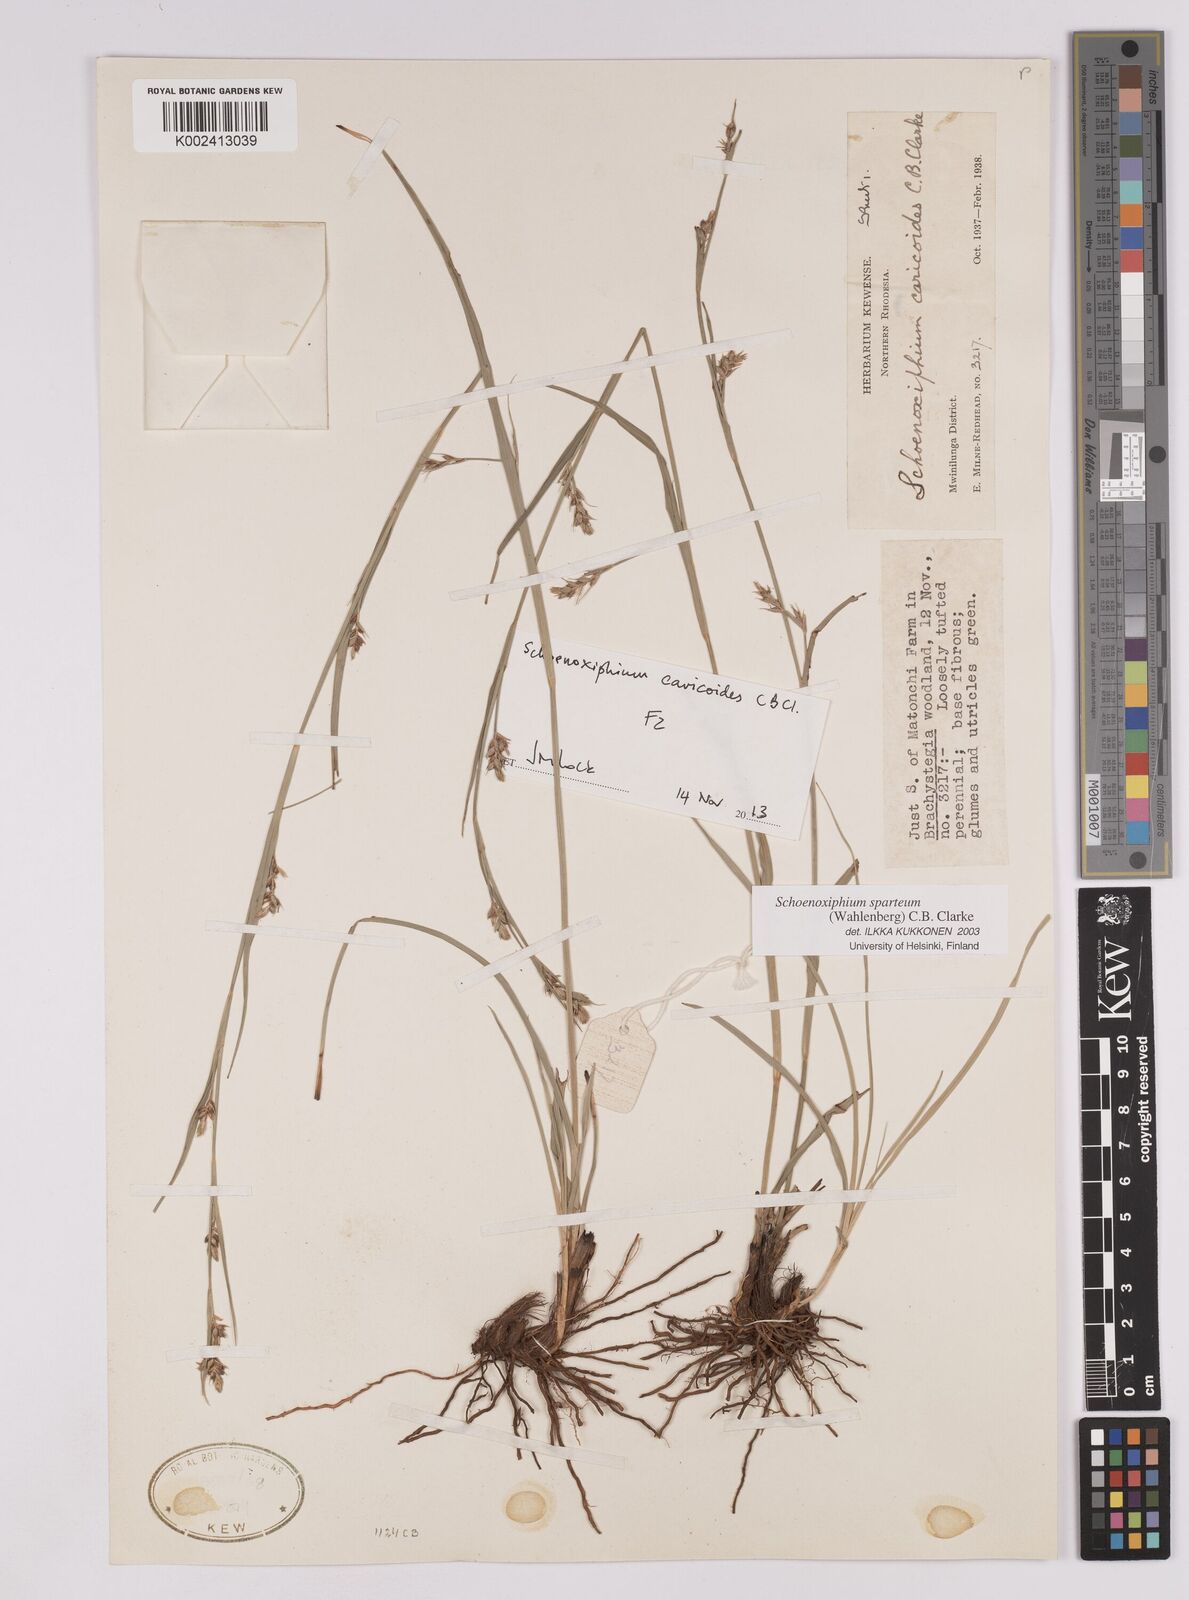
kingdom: Plantae
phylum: Tracheophyta
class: Liliopsida
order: Poales
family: Cyperaceae
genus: Carex
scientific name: Carex spartea
